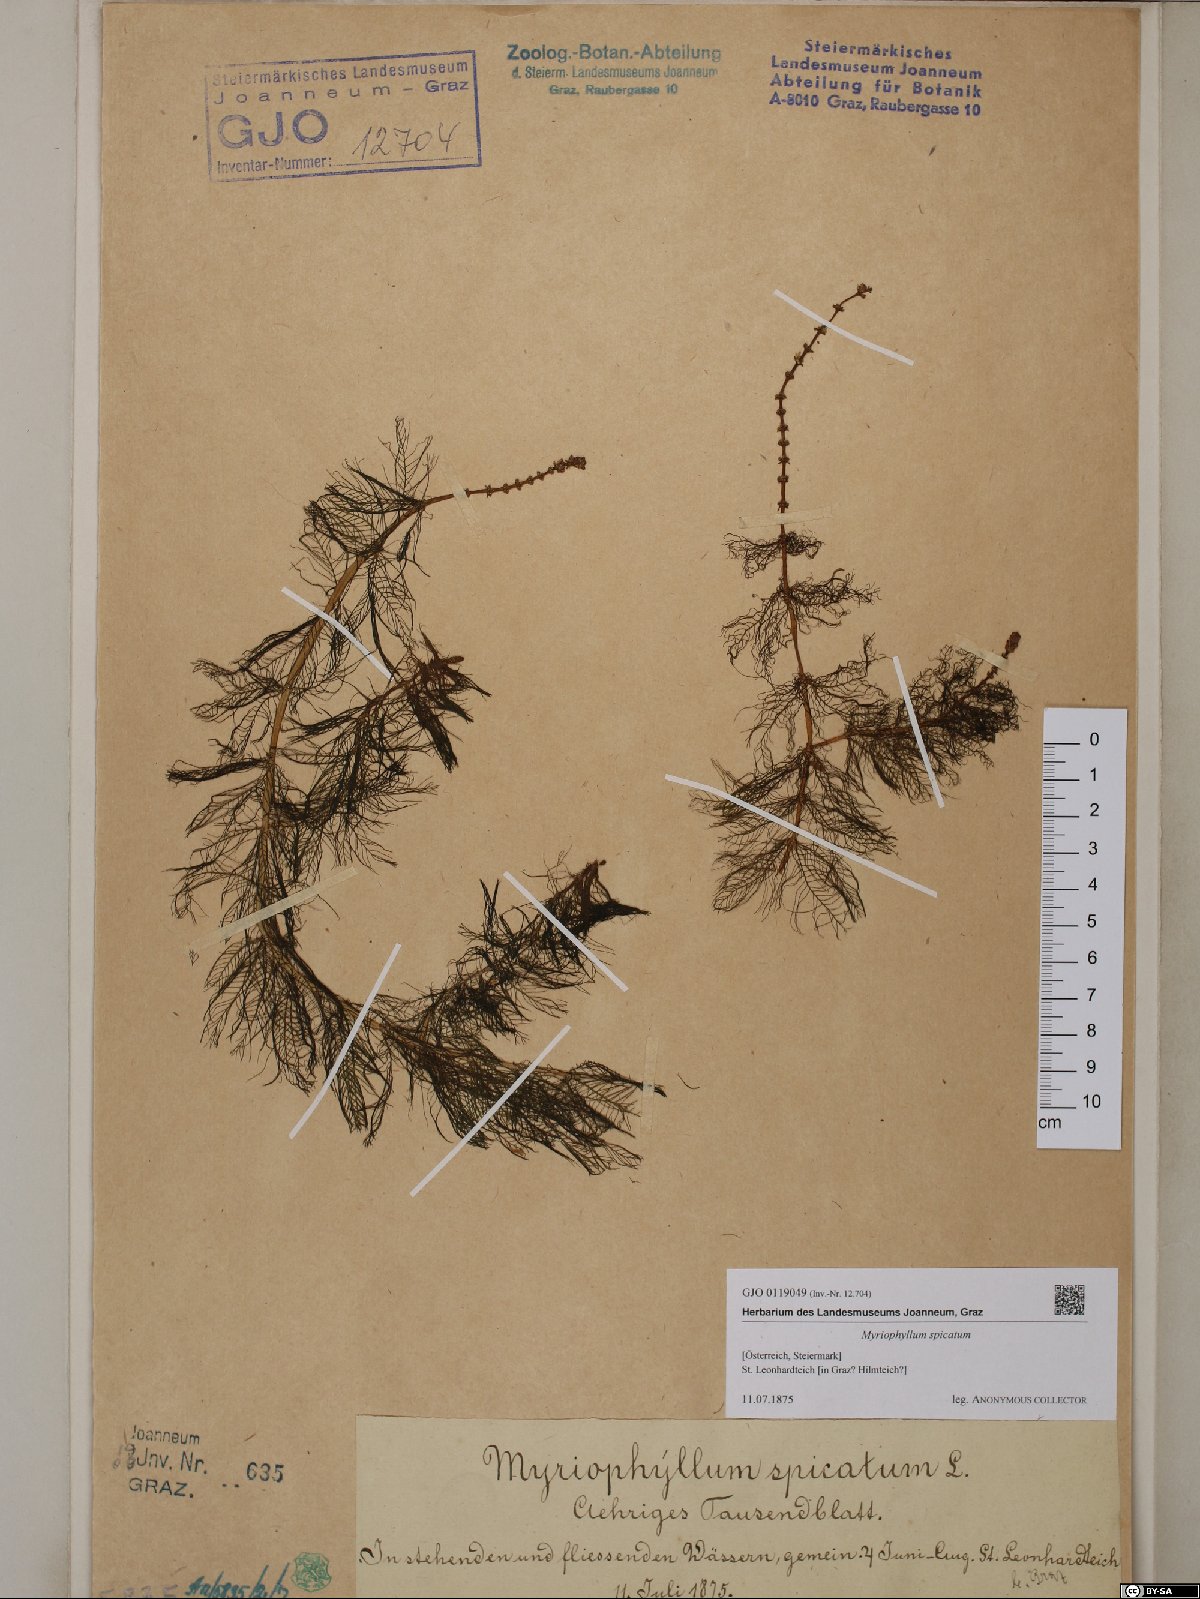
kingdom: Plantae
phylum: Tracheophyta
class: Magnoliopsida
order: Saxifragales
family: Haloragaceae
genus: Myriophyllum
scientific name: Myriophyllum spicatum
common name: Spiked water-milfoil
